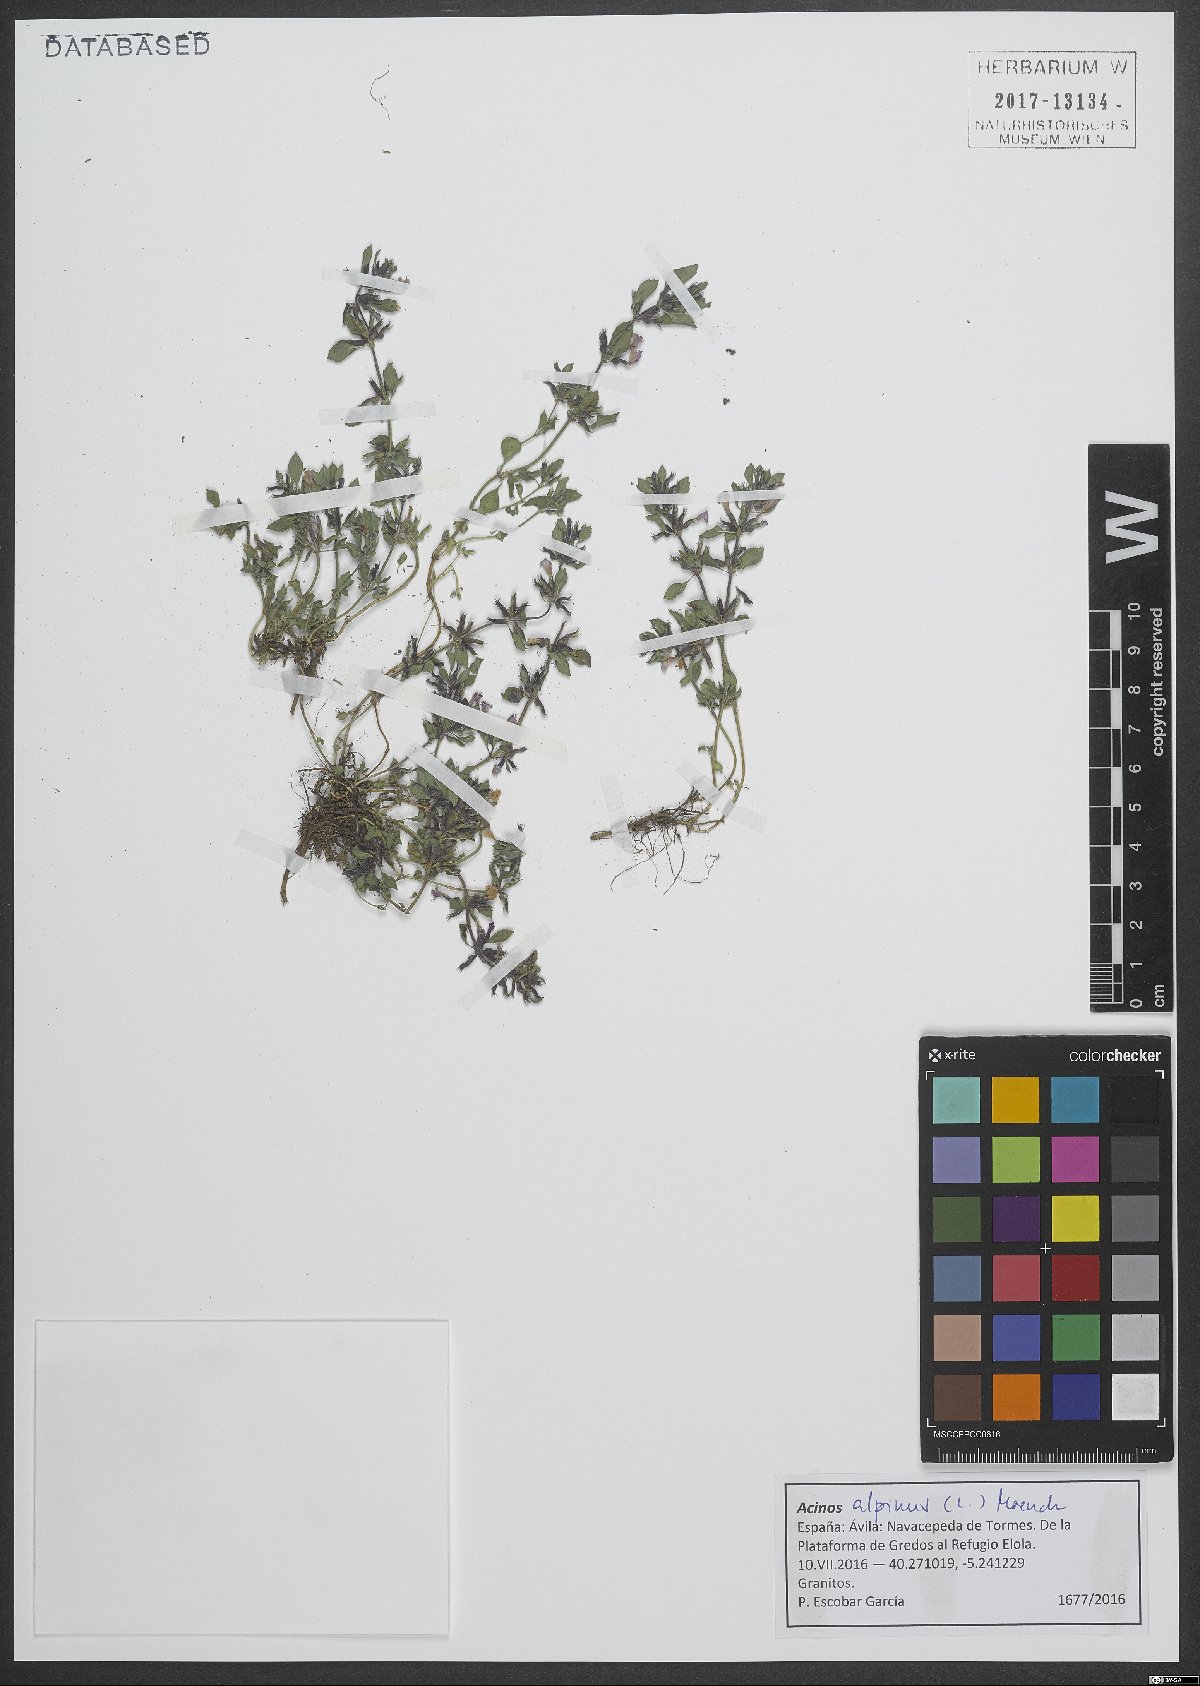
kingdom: Plantae
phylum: Tracheophyta
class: Magnoliopsida
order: Lamiales
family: Lamiaceae
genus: Clinopodium
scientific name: Clinopodium alpinum
